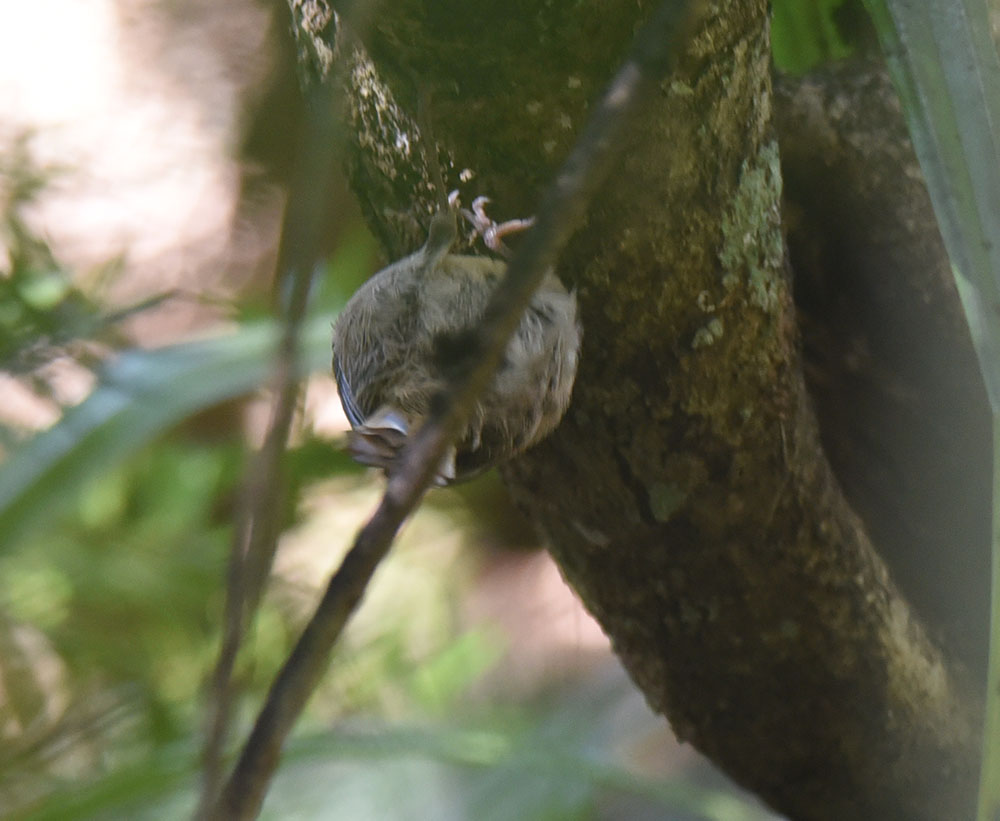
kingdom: Animalia
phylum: Chordata
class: Aves
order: Passeriformes
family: Acanthizidae
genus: Finschia
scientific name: Finschia novaeseelandiae
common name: Pipipi
